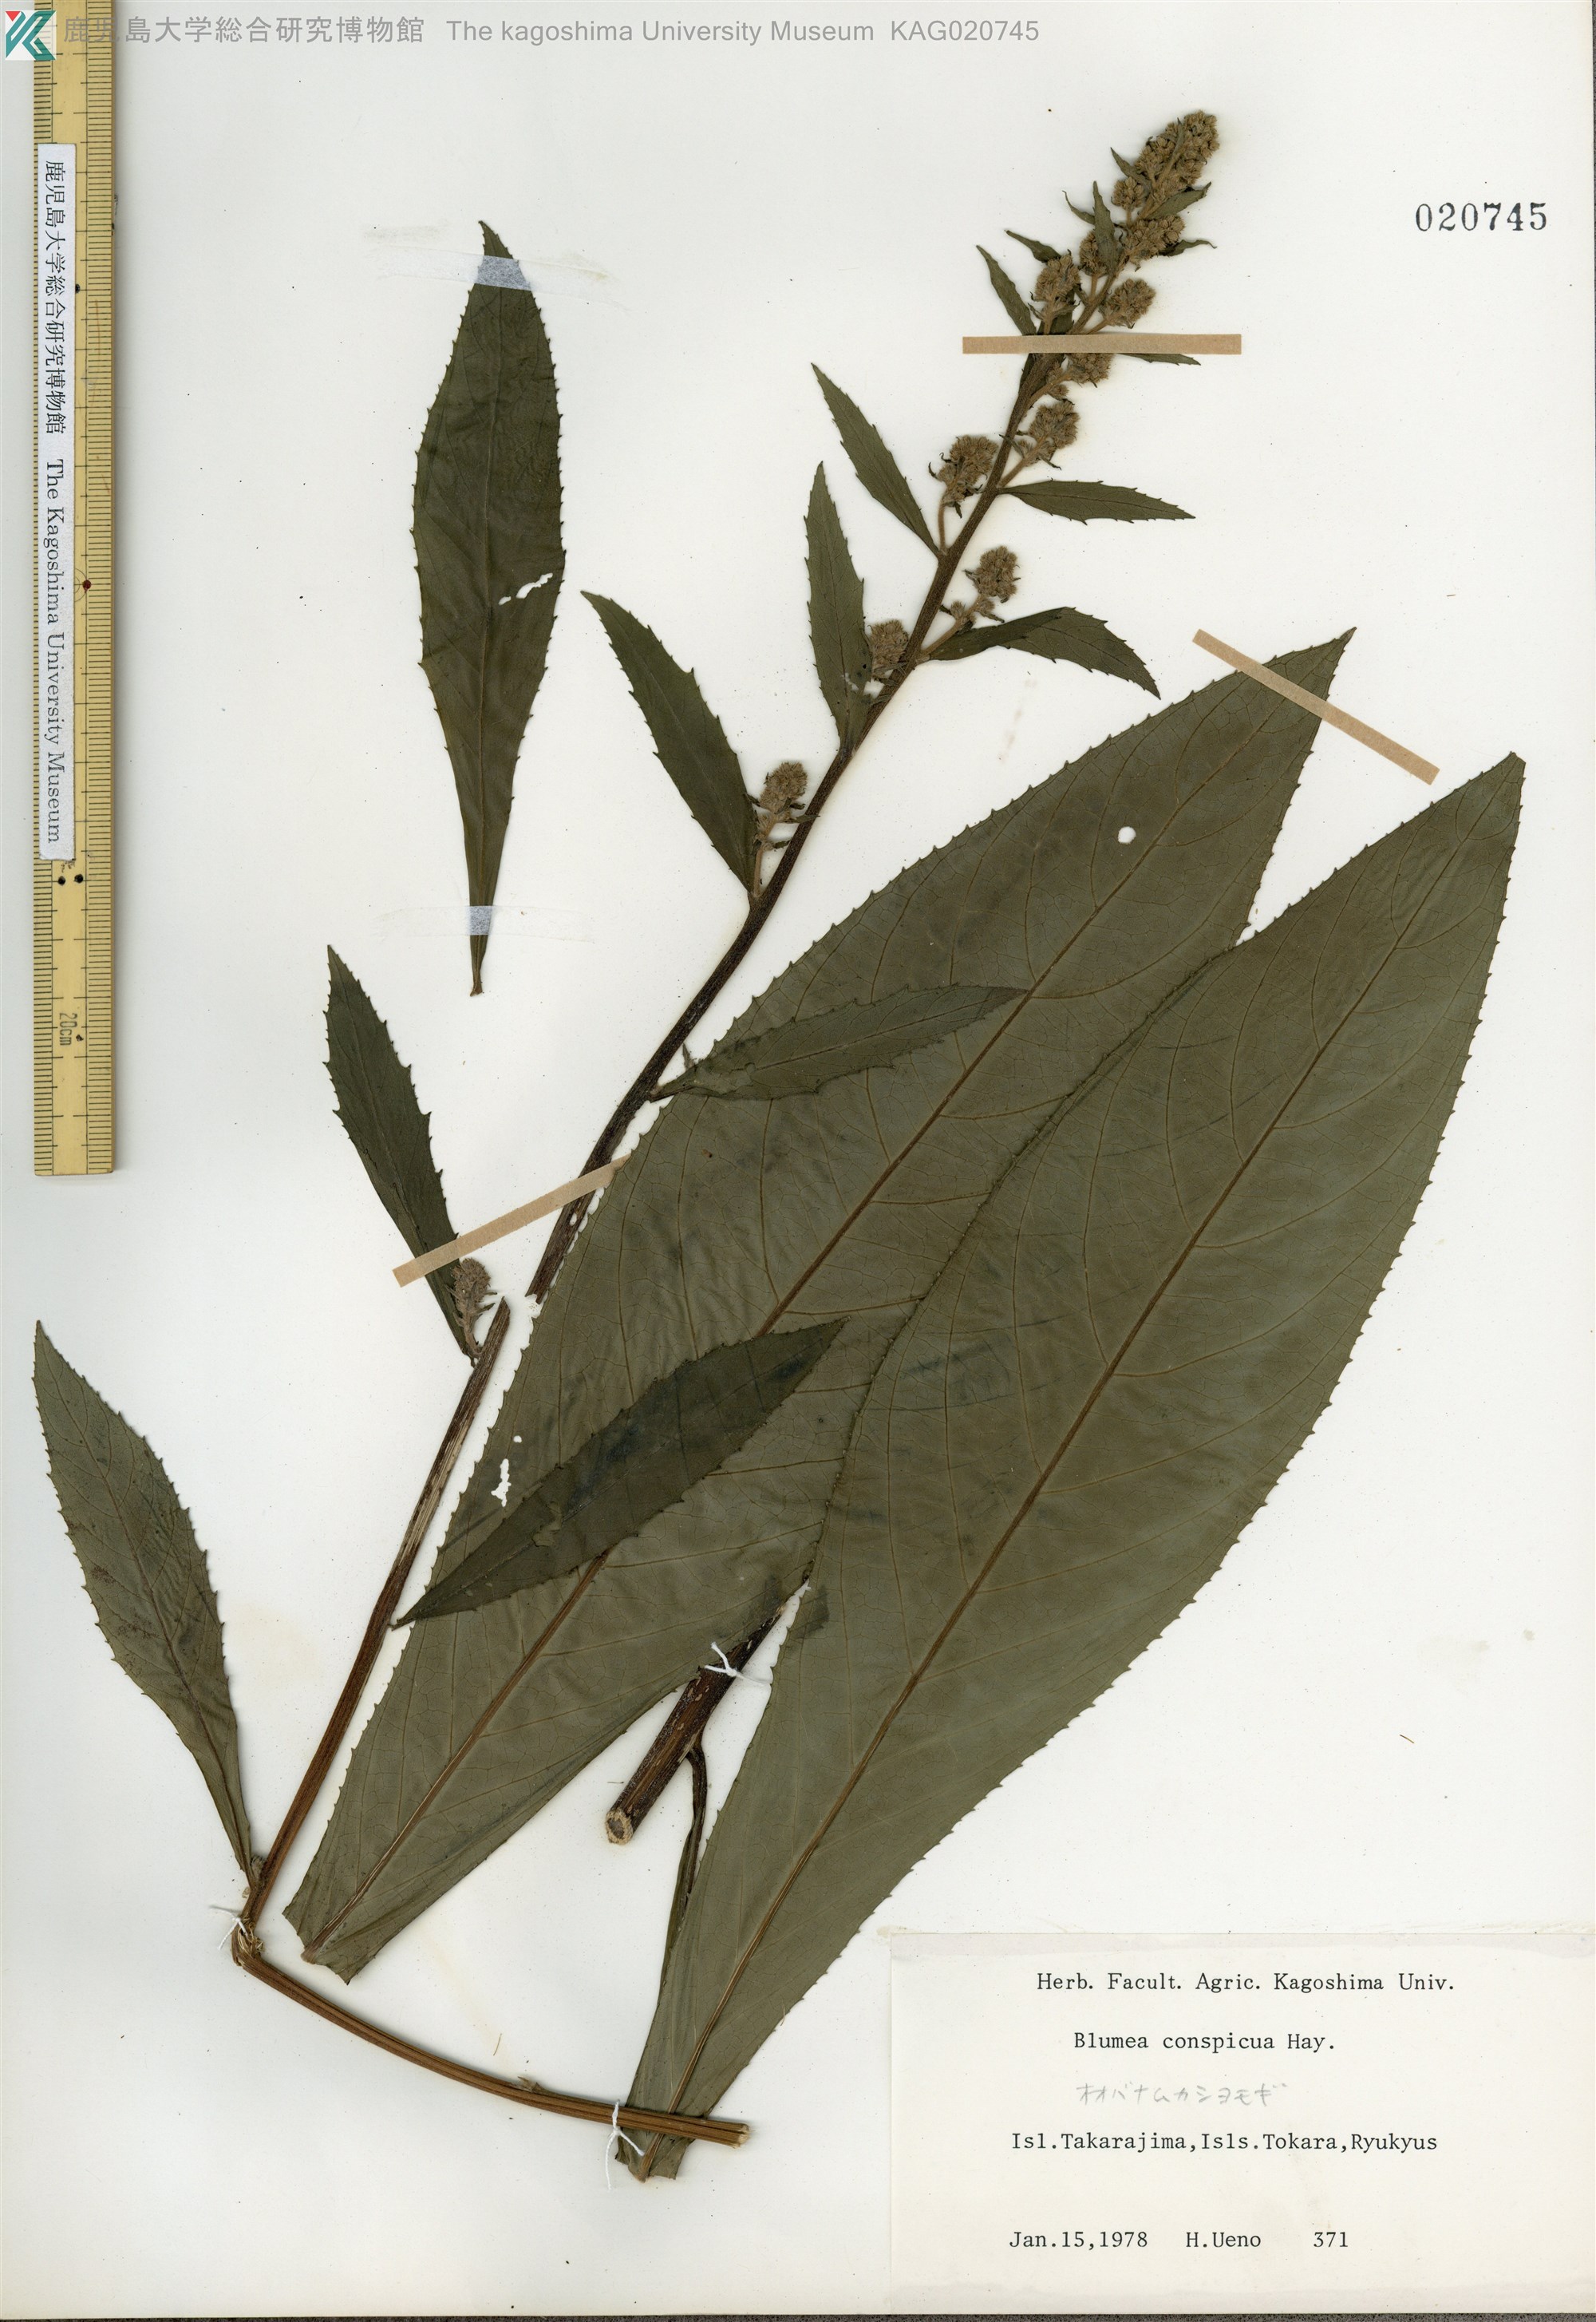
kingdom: Plantae
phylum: Tracheophyta
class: Magnoliopsida
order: Asterales
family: Asteraceae
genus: Blumea
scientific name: Blumea conspicua
